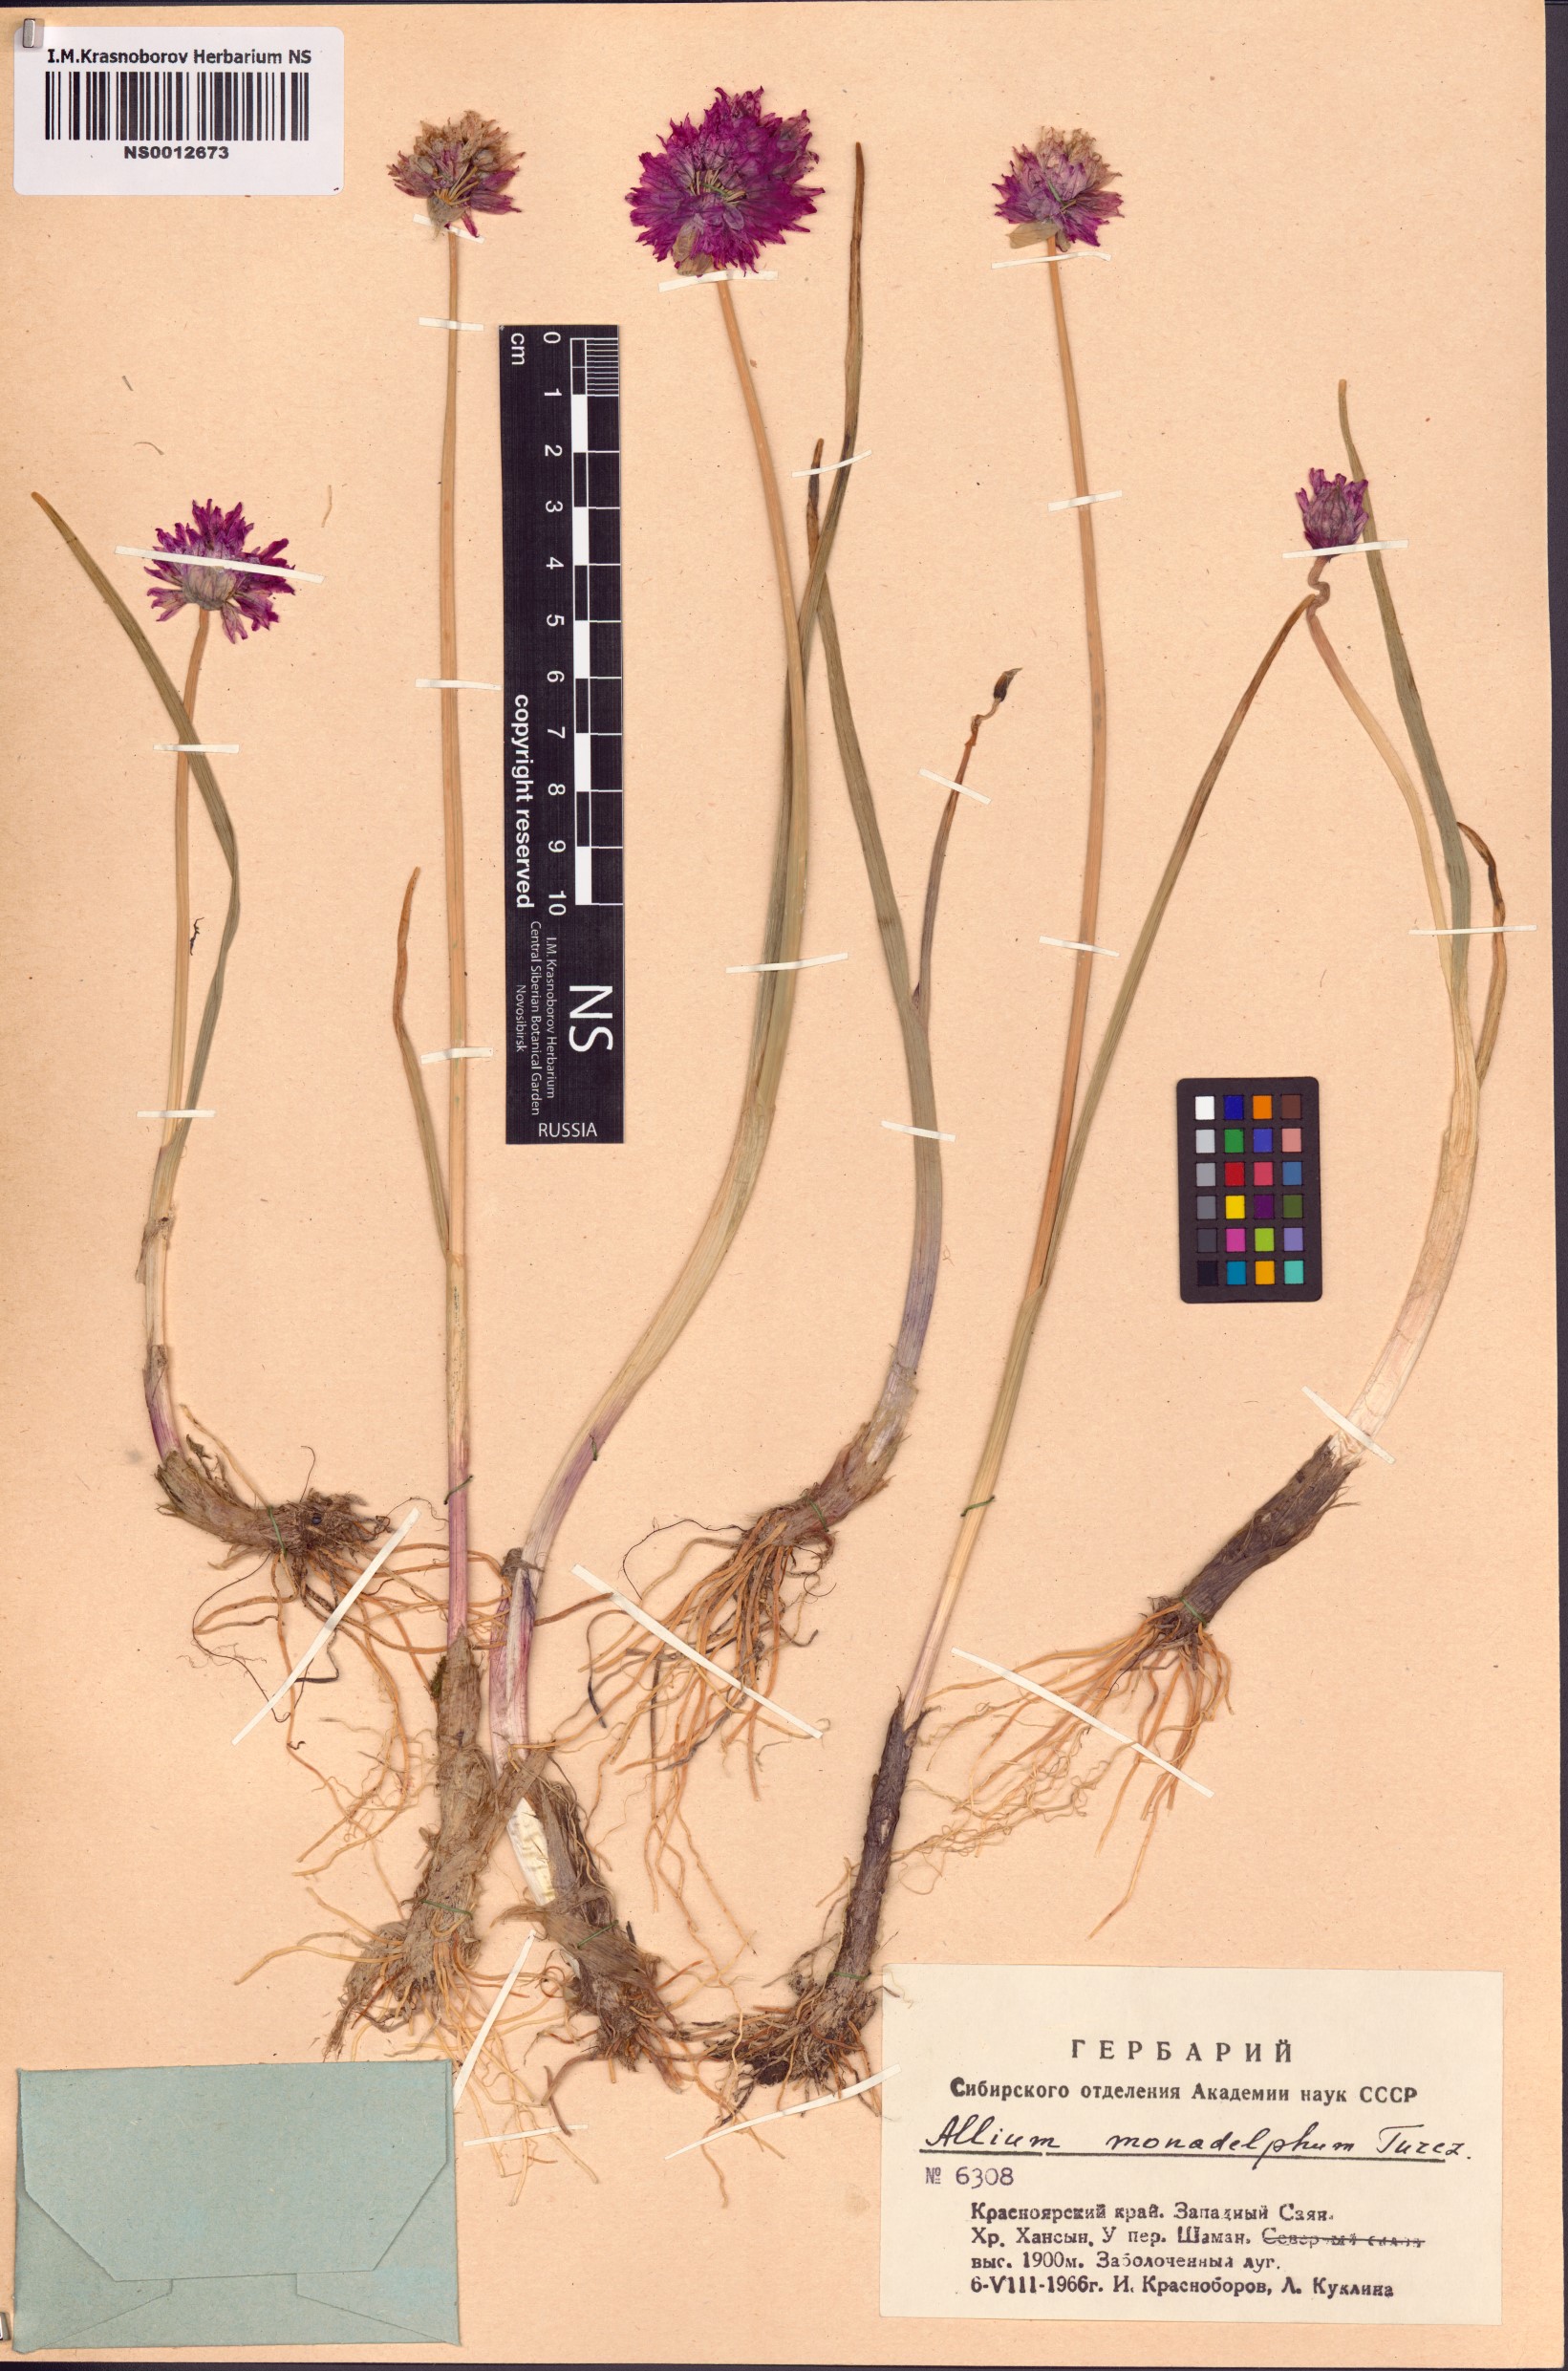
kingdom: Plantae
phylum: Tracheophyta
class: Liliopsida
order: Asparagales
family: Amaryllidaceae
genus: Allium
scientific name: Allium atrosanguineum
